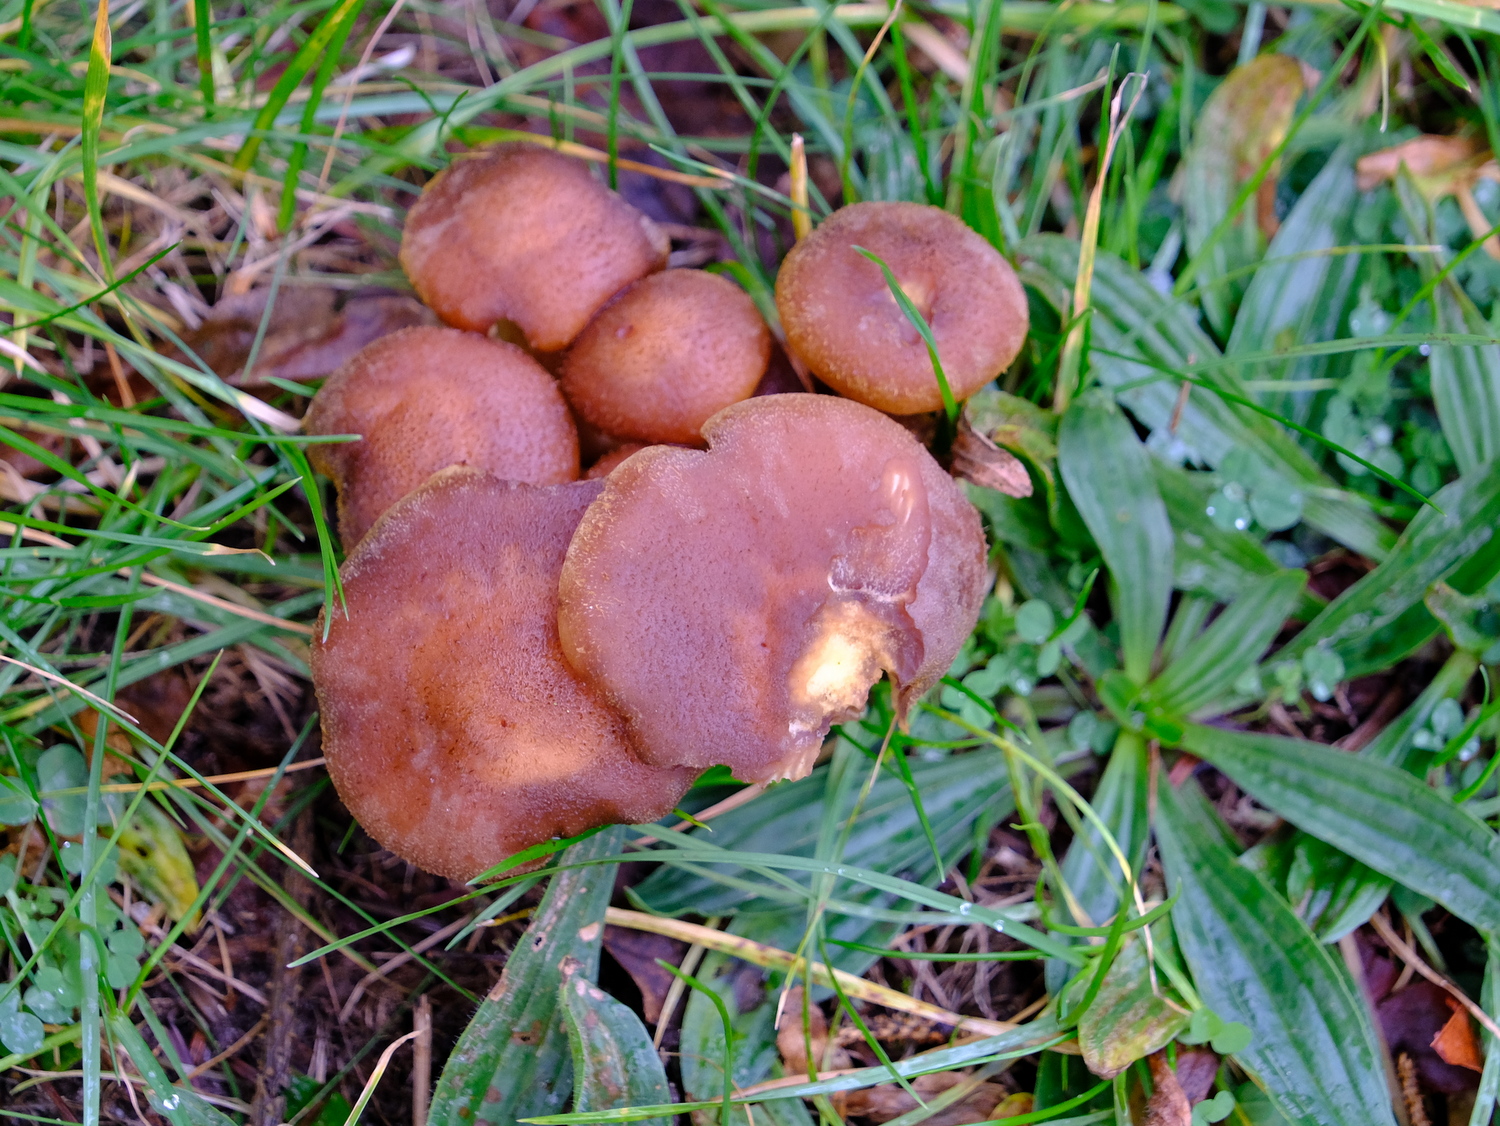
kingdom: Fungi
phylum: Basidiomycota
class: Agaricomycetes
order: Agaricales
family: Physalacriaceae
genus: Armillaria
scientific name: Armillaria ostoyae
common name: mørk honningsvamp
